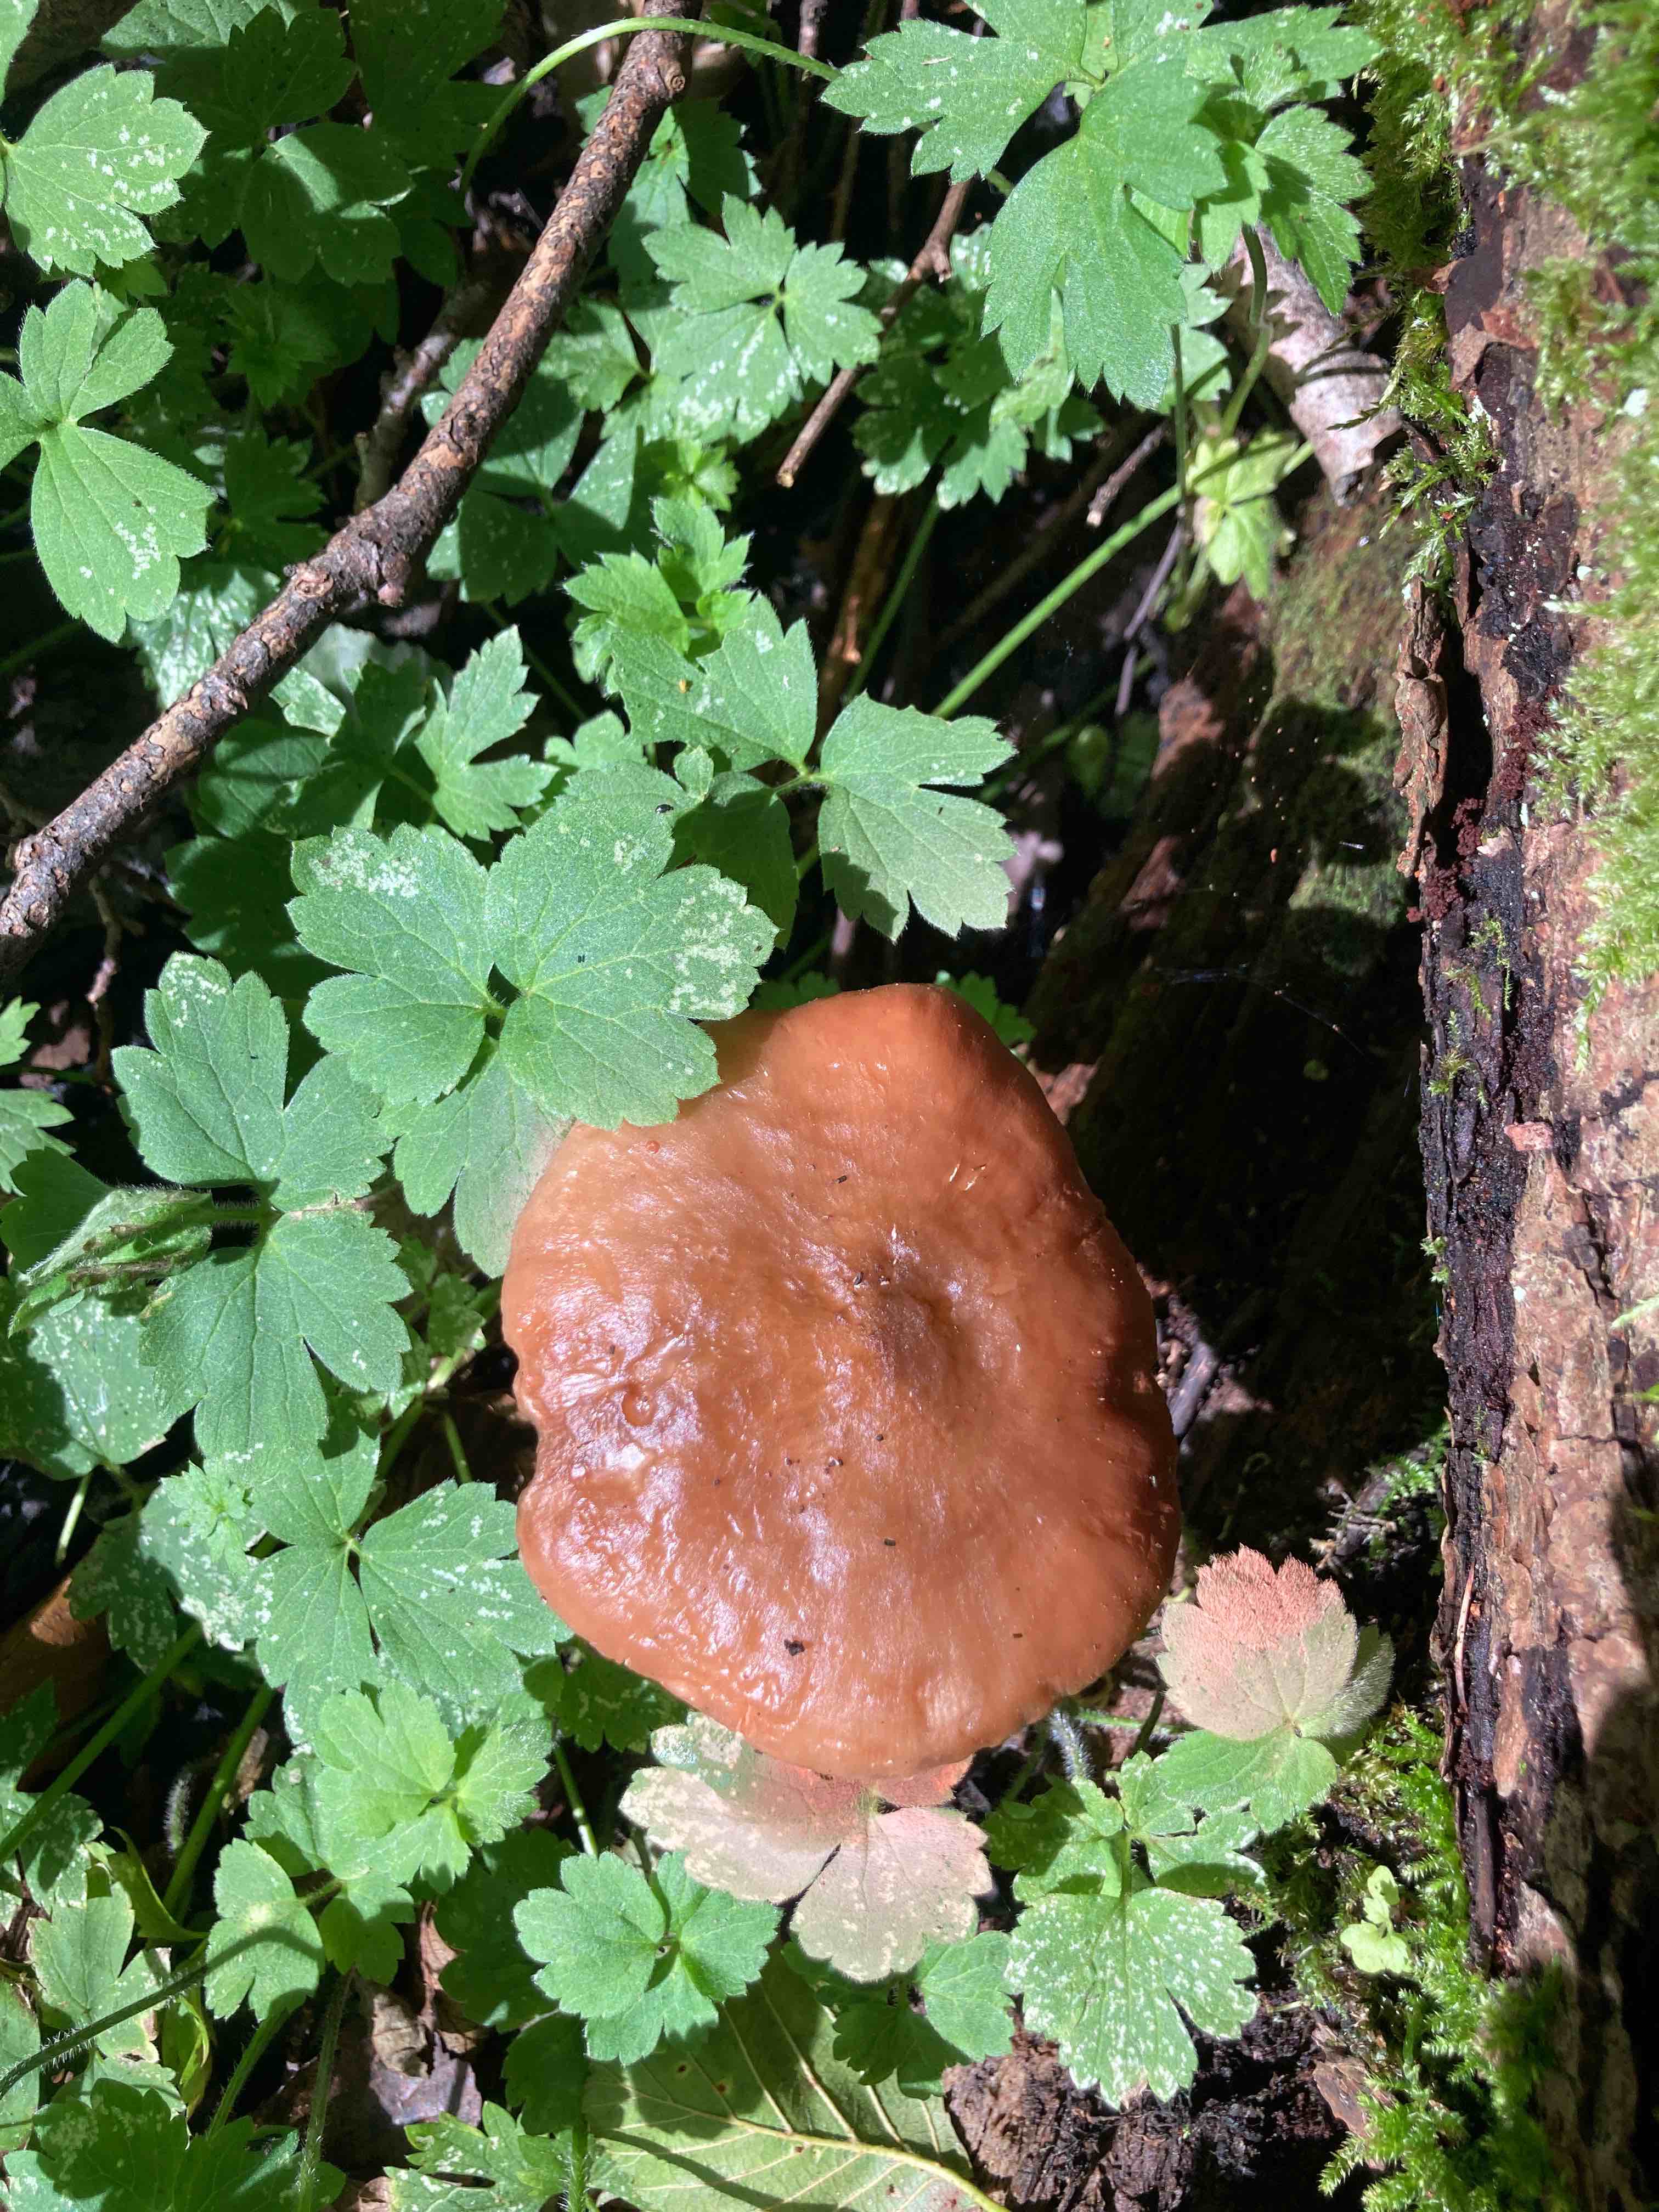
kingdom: Fungi
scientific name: Fungi
